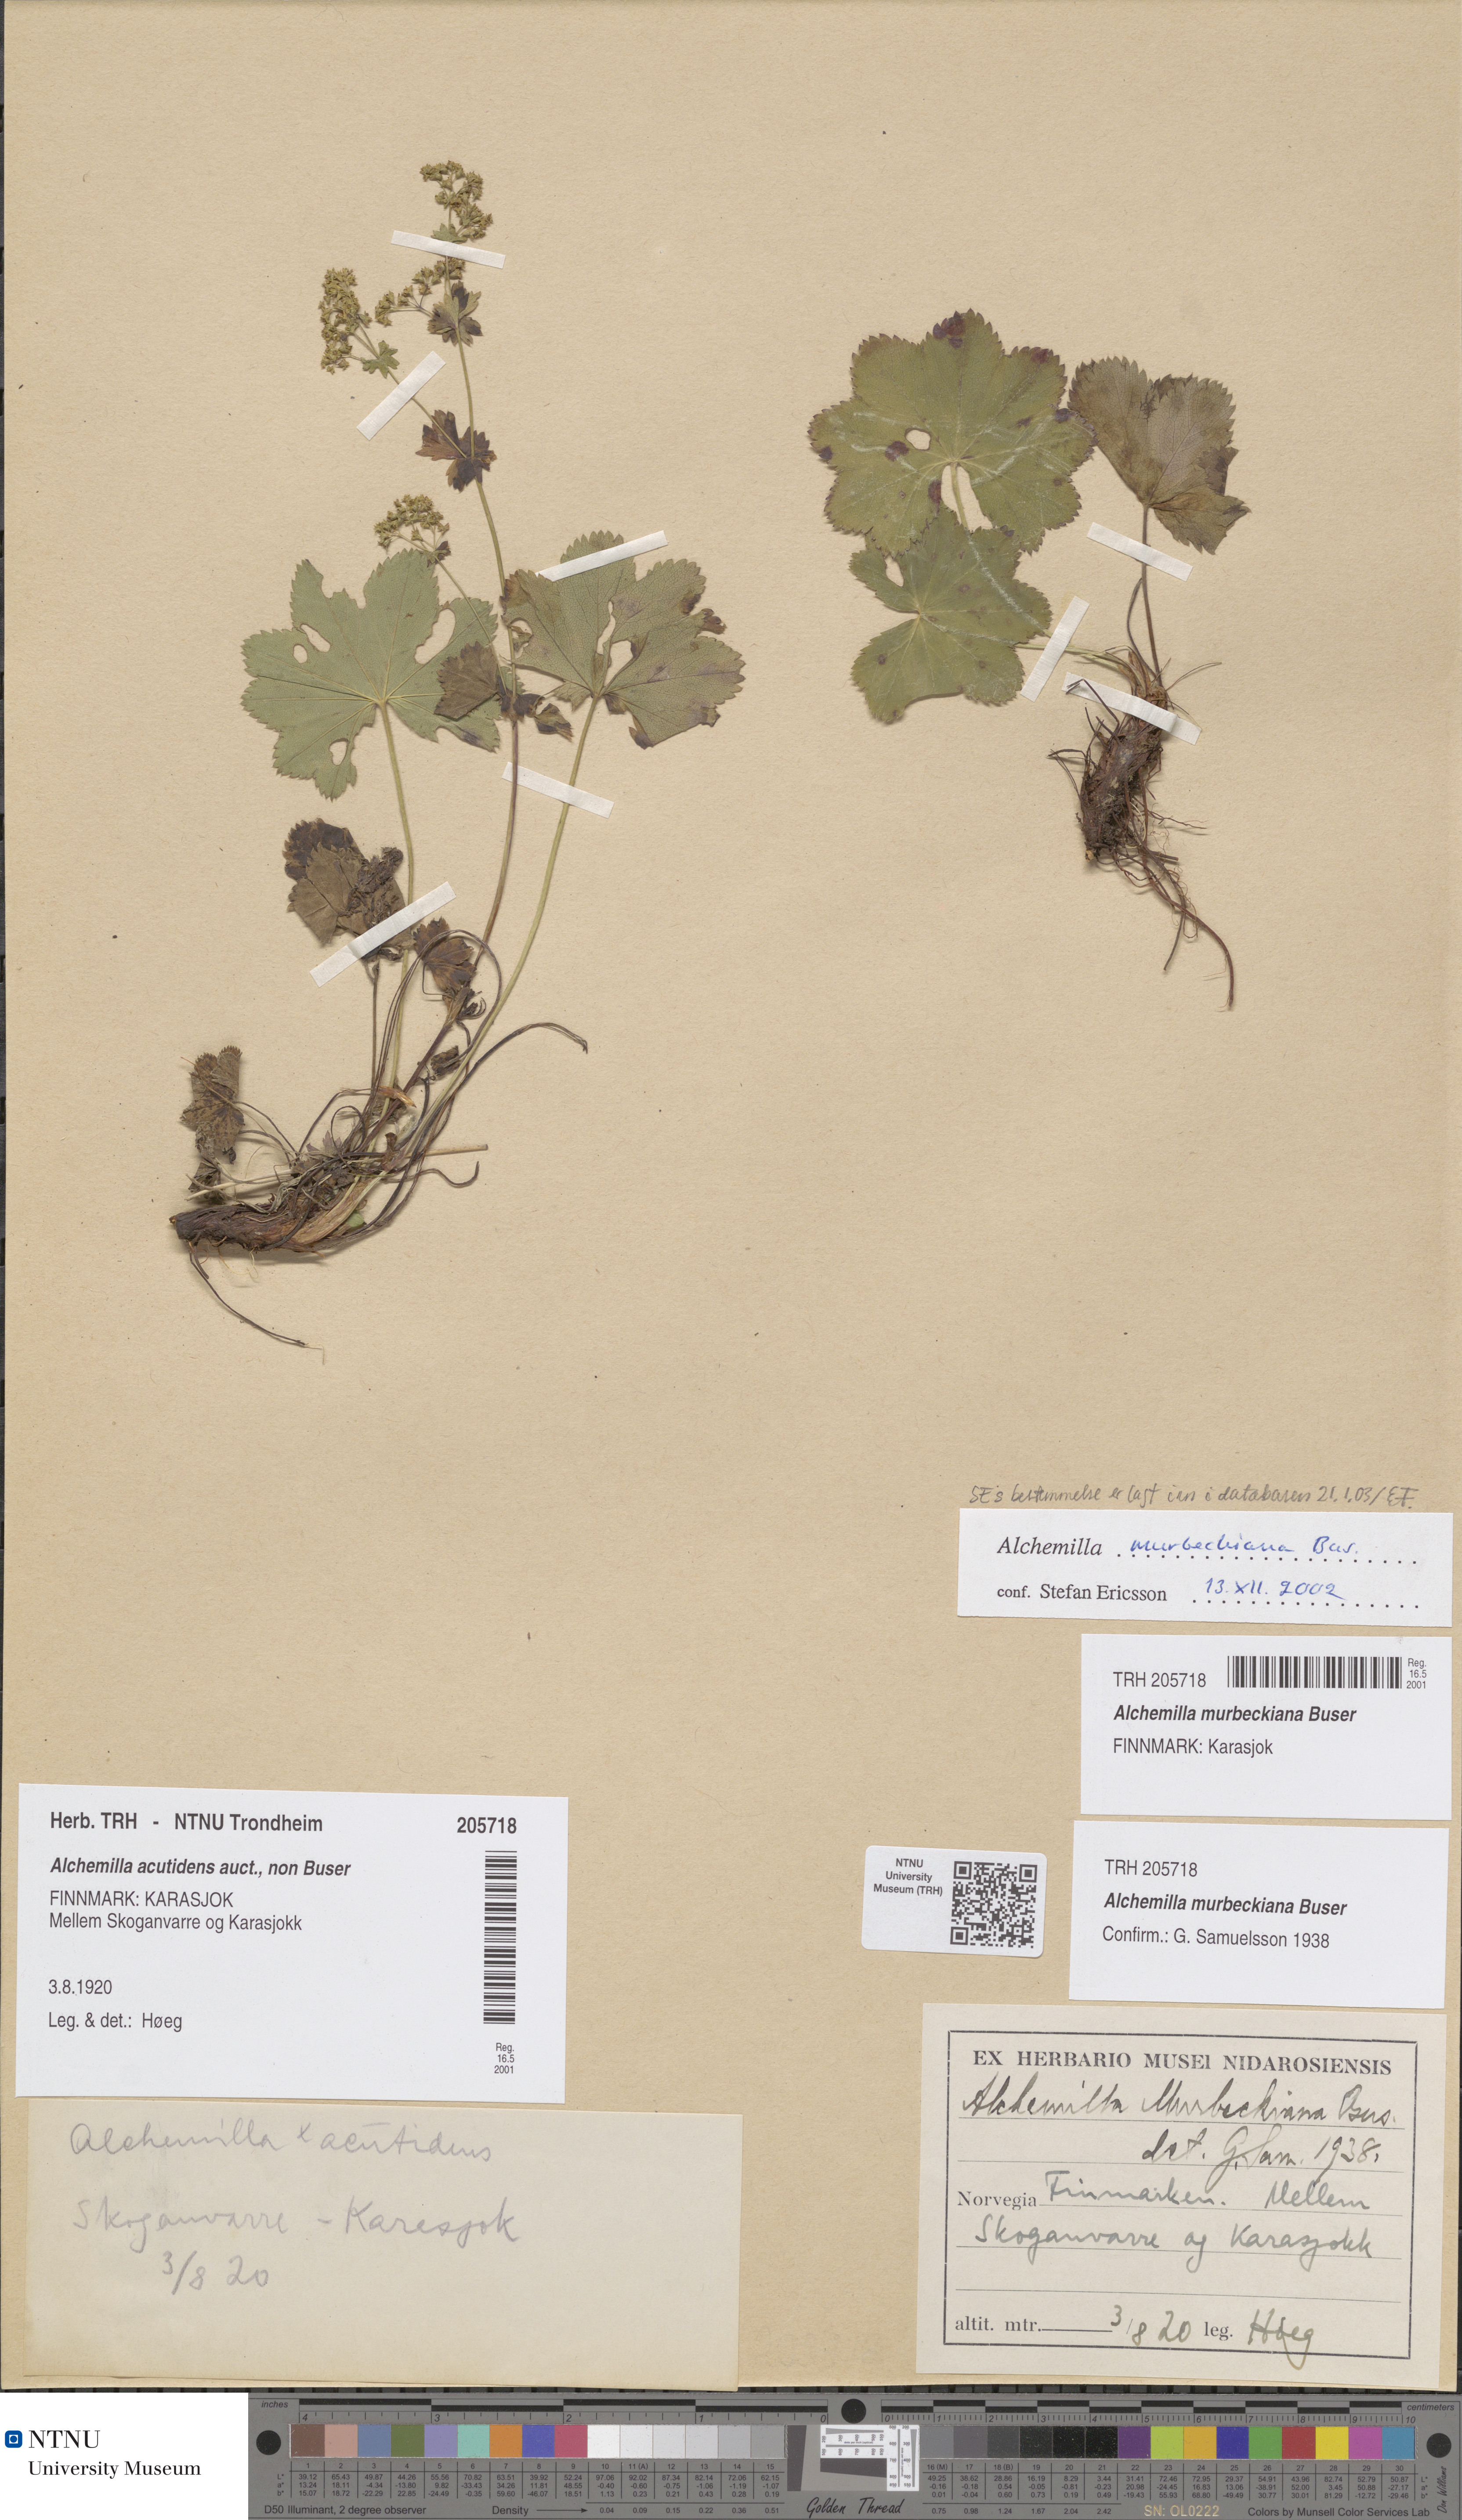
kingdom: Plantae
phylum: Tracheophyta
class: Magnoliopsida
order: Rosales
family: Rosaceae
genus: Alchemilla
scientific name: Alchemilla murbeckiana
